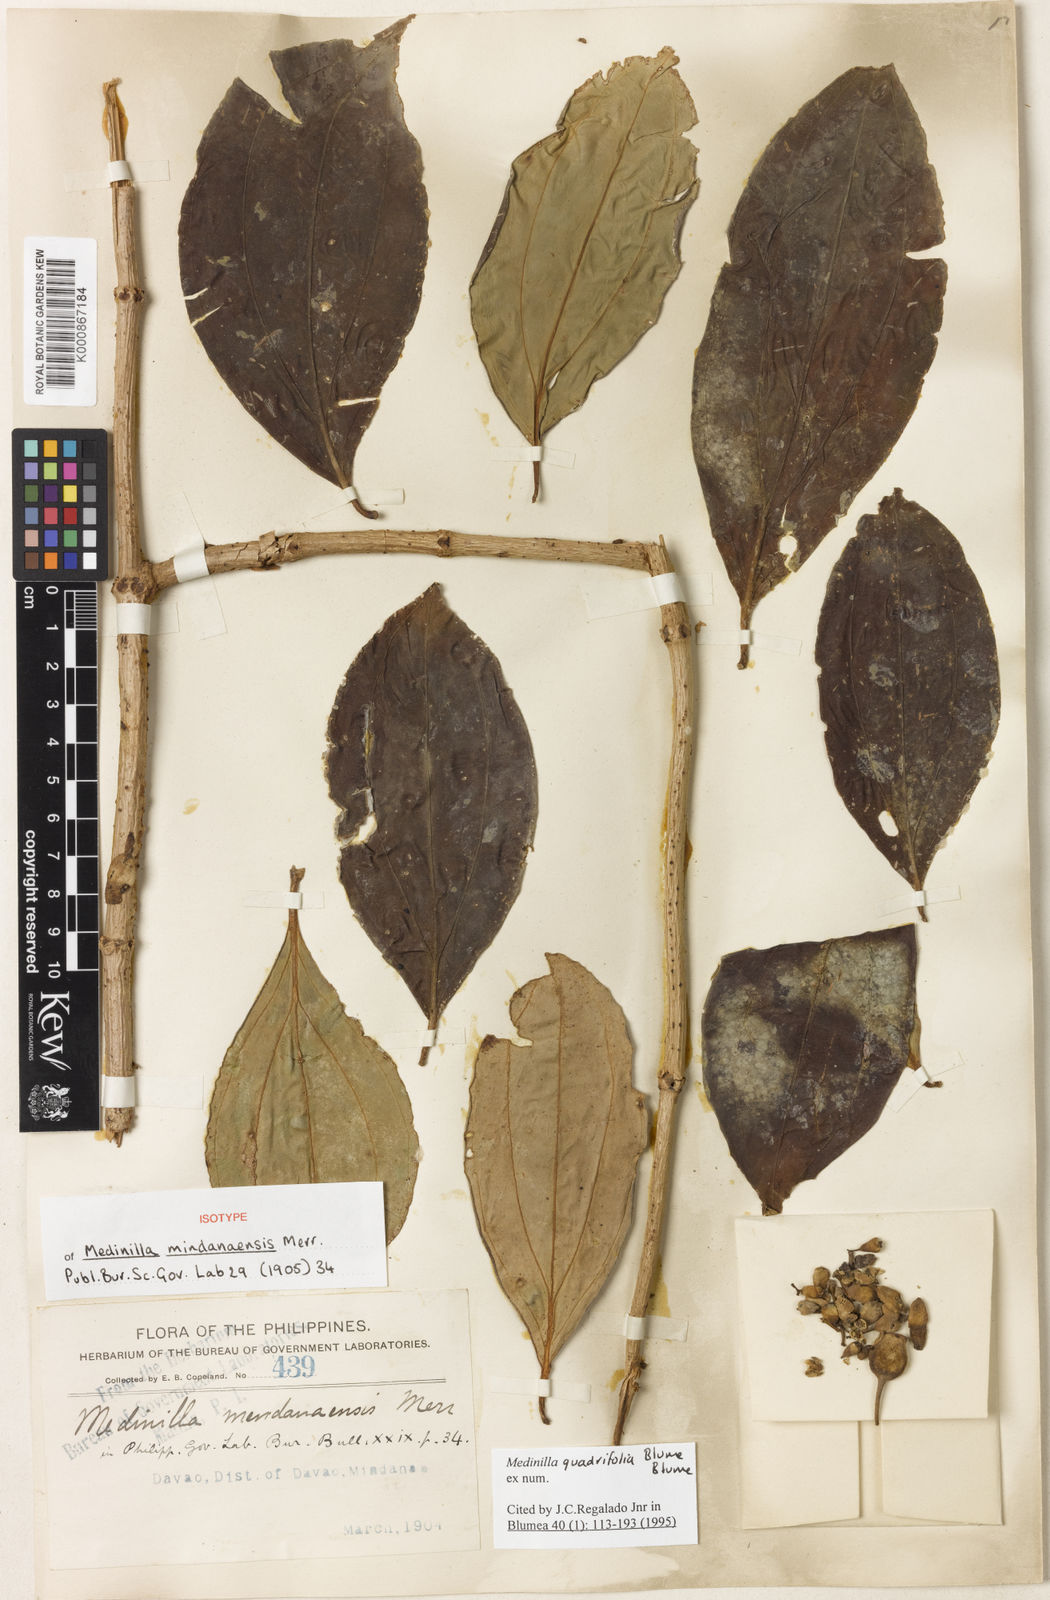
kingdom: Plantae
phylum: Tracheophyta
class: Magnoliopsida
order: Myrtales
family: Melastomataceae
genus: Medinilla
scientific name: Medinilla quadrifolia
